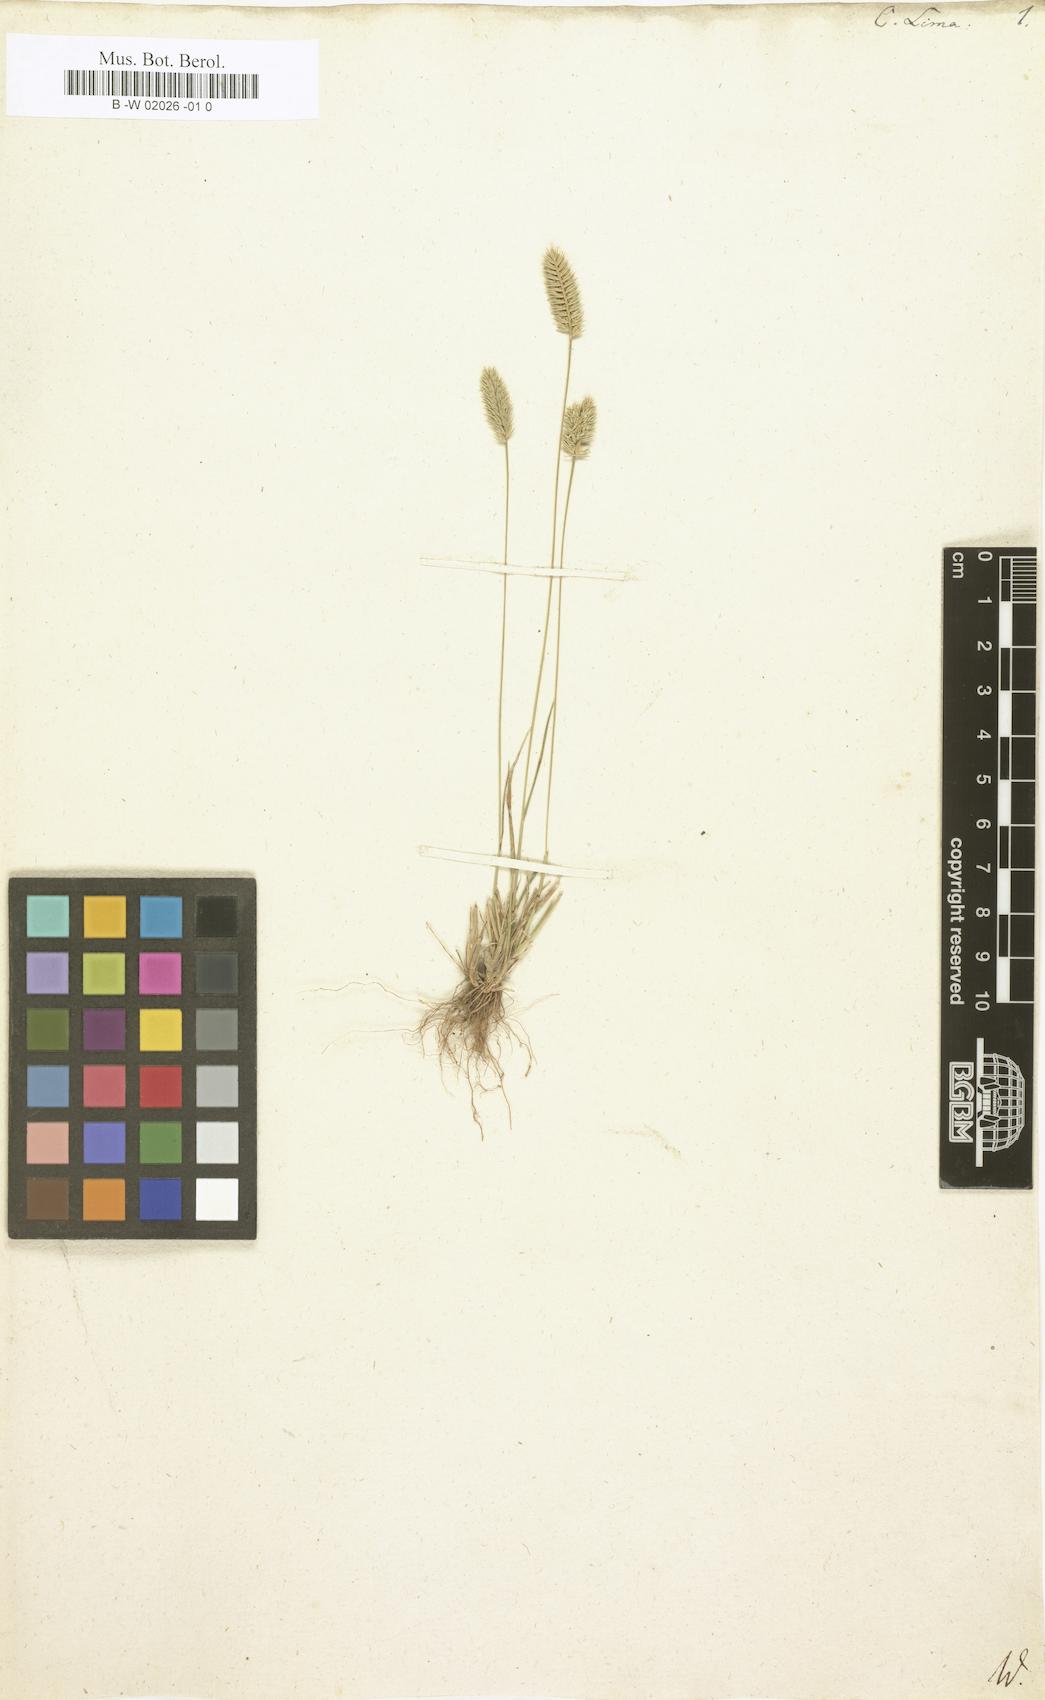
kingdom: Plantae
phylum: Tracheophyta
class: Liliopsida
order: Poales
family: Poaceae
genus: Wangenheimia
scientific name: Wangenheimia lima
